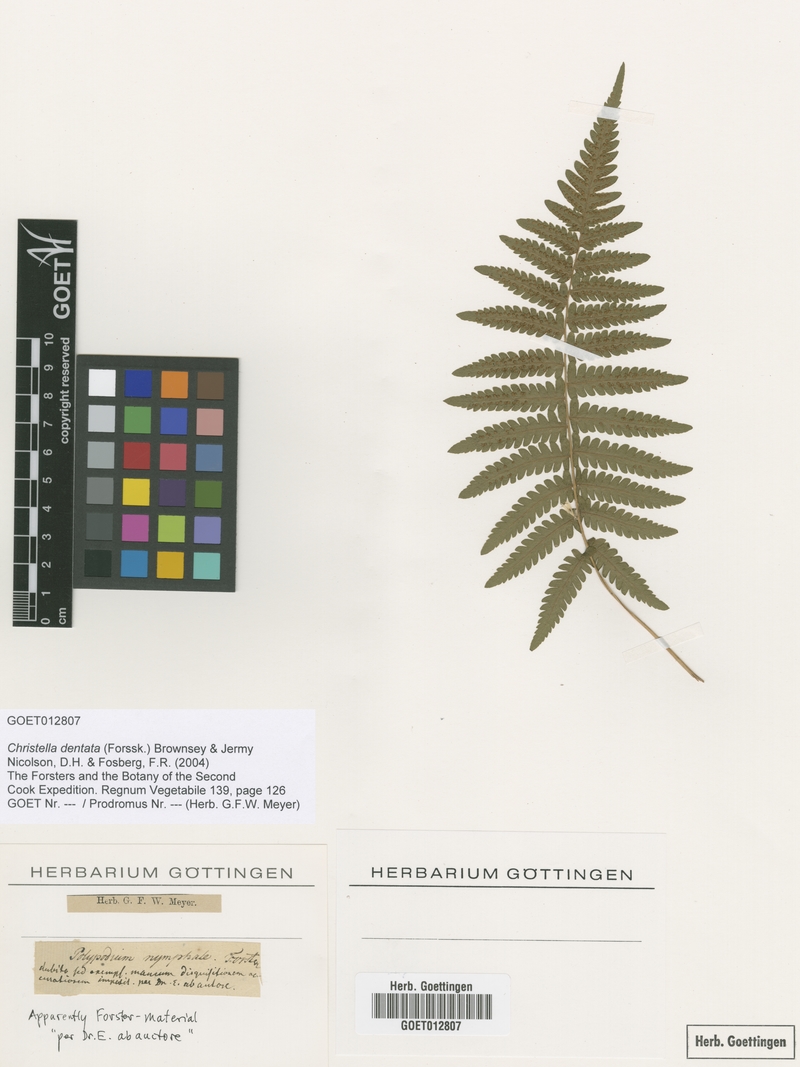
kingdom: Plantae
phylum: Tracheophyta
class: Polypodiopsida
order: Polypodiales
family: Thelypteridaceae
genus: Christella
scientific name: Christella dentata
